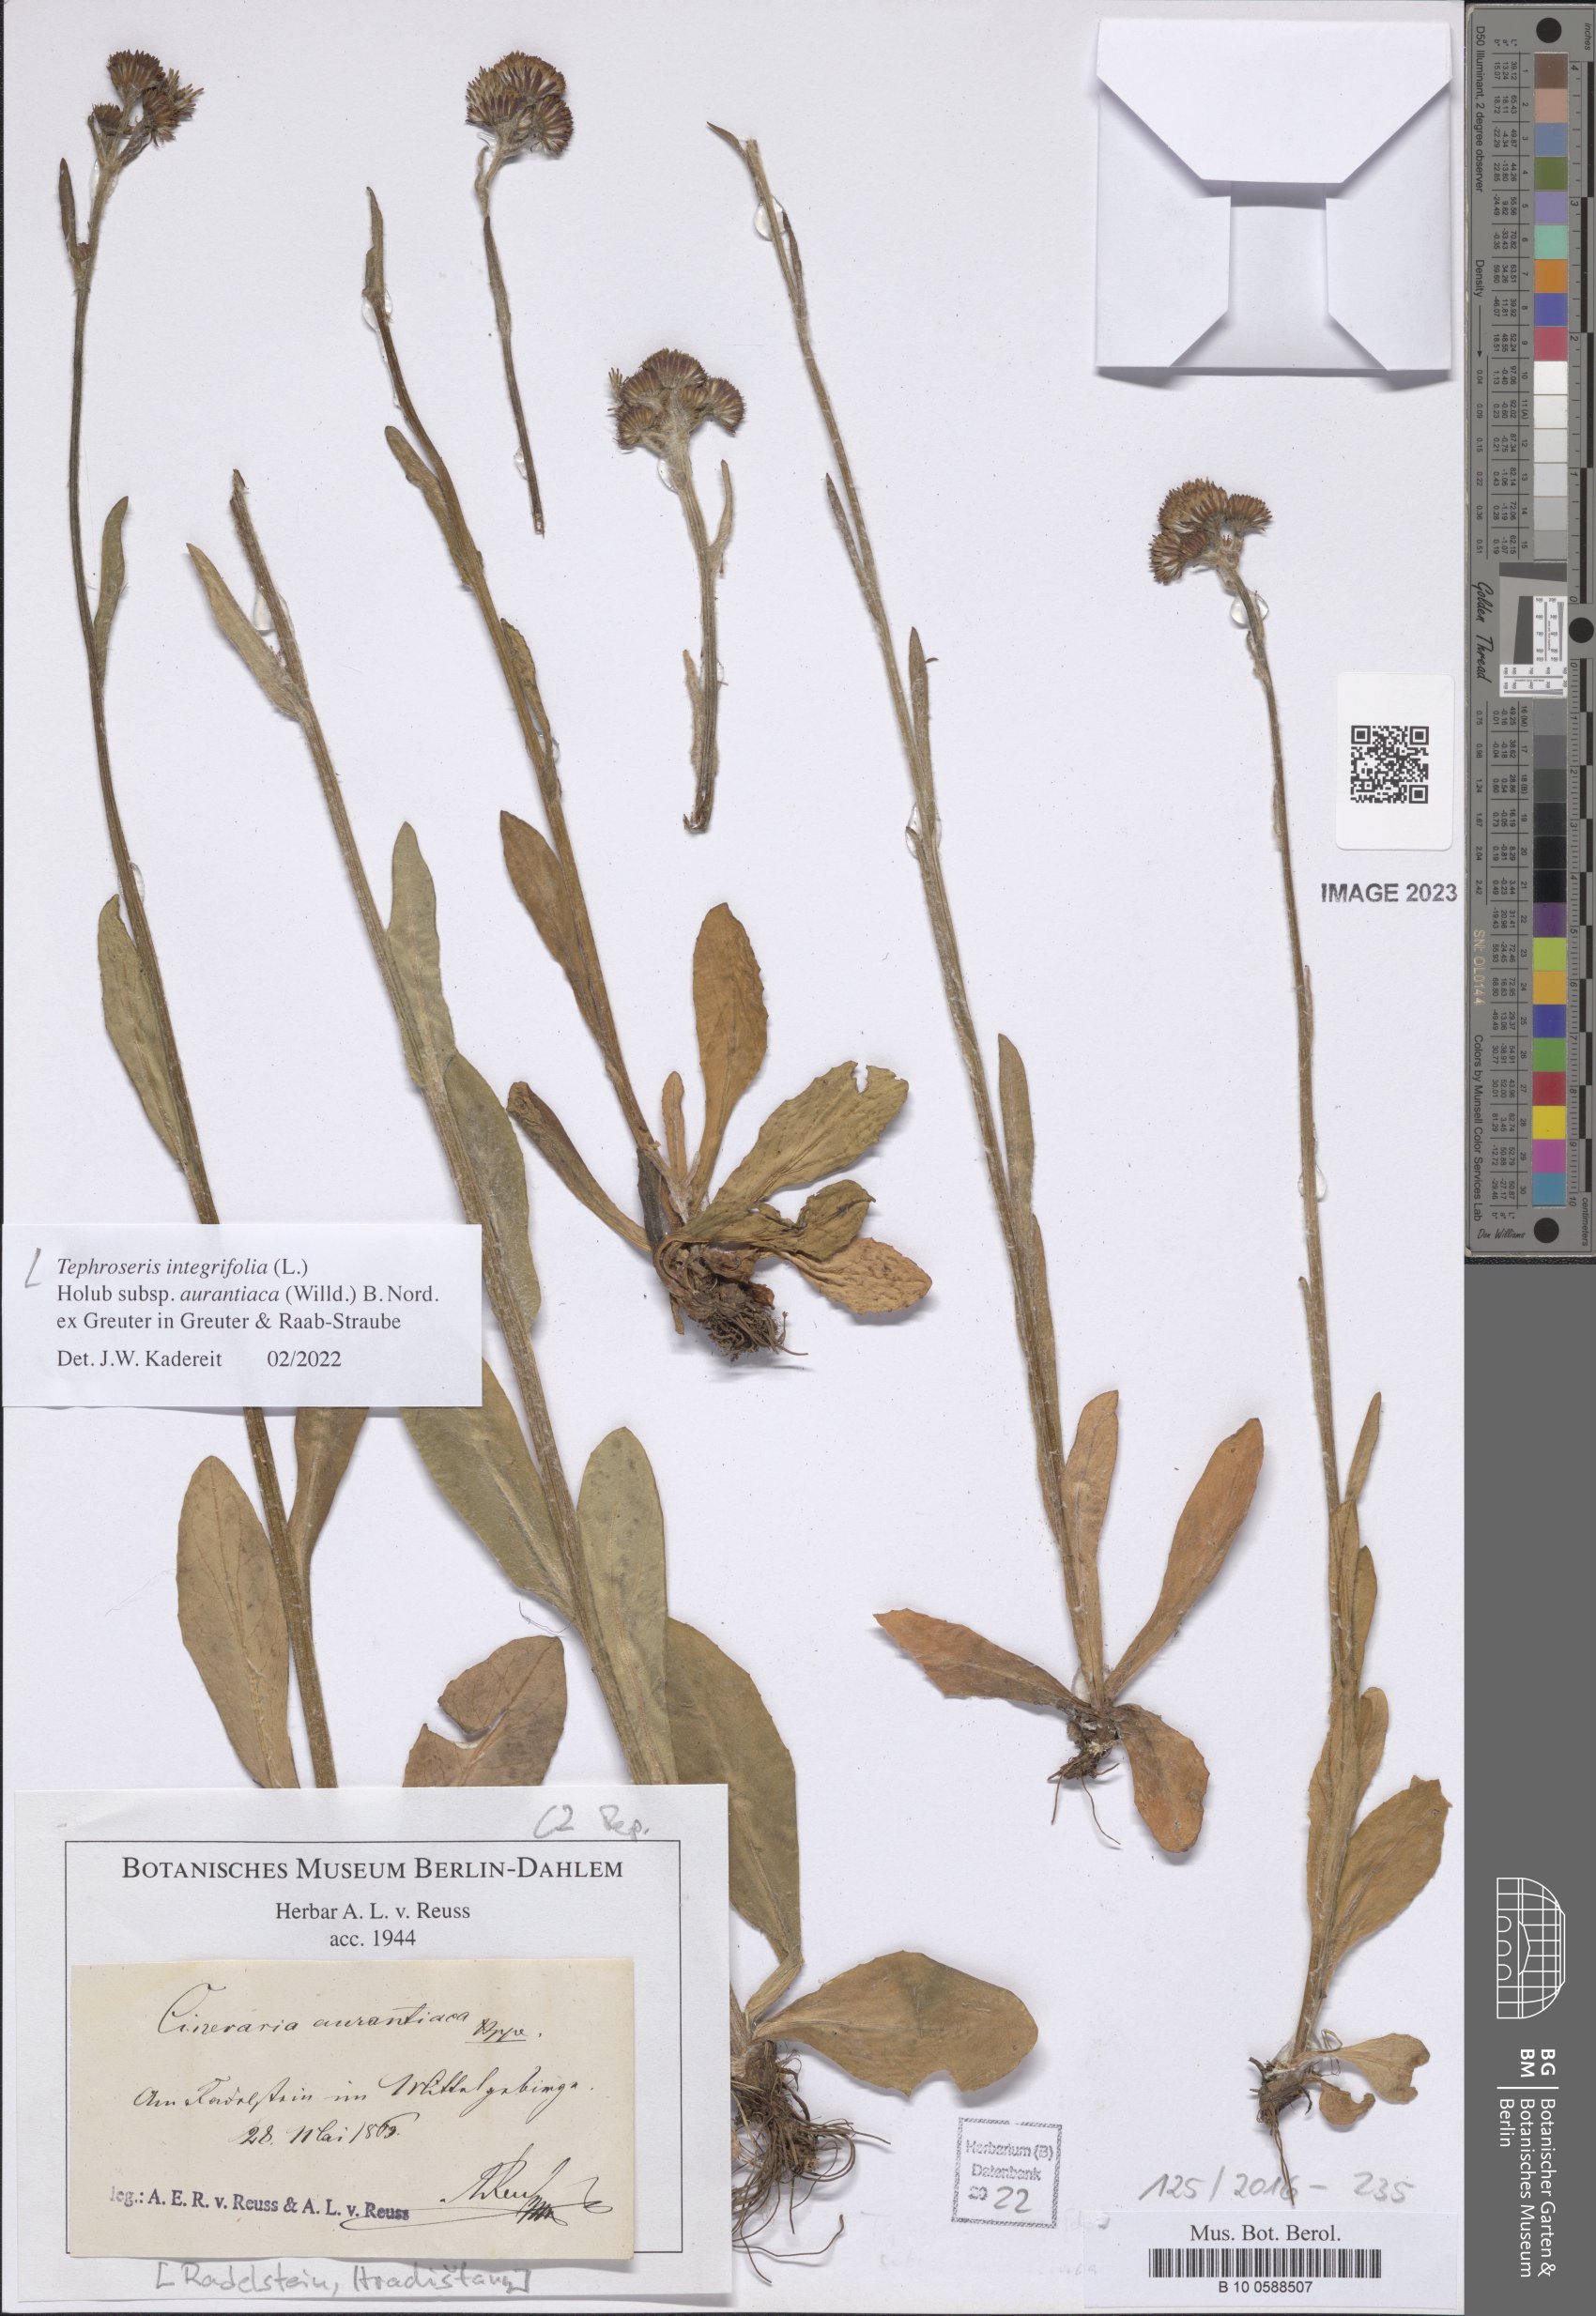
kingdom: Plantae
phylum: Tracheophyta
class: Magnoliopsida
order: Asterales
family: Asteraceae
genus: Tephroseris
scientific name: Tephroseris integrifolia
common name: Field fleawort
